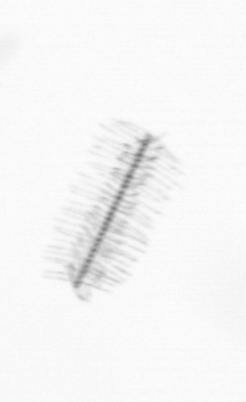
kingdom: Chromista
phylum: Ochrophyta
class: Bacillariophyceae
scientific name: Bacillariophyceae
